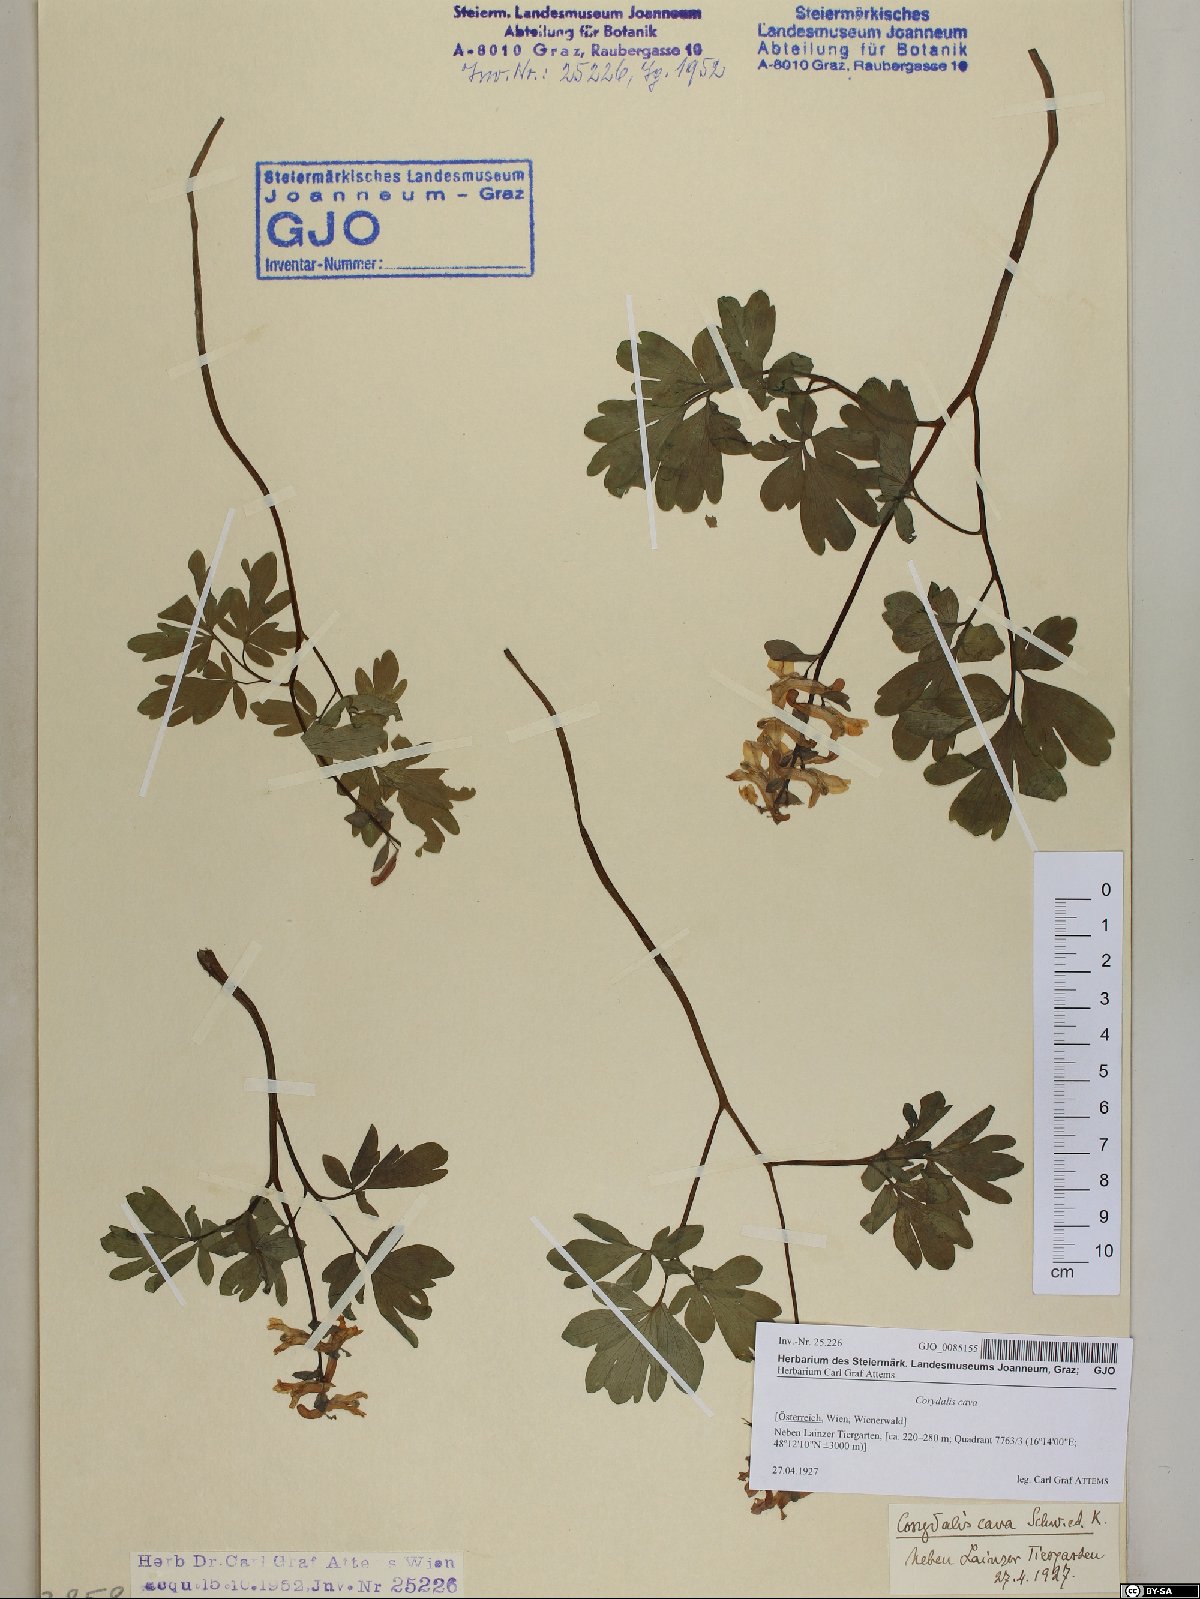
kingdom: Plantae
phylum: Tracheophyta
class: Magnoliopsida
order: Ranunculales
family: Papaveraceae
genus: Corydalis
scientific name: Corydalis cava
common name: Hollowroot
